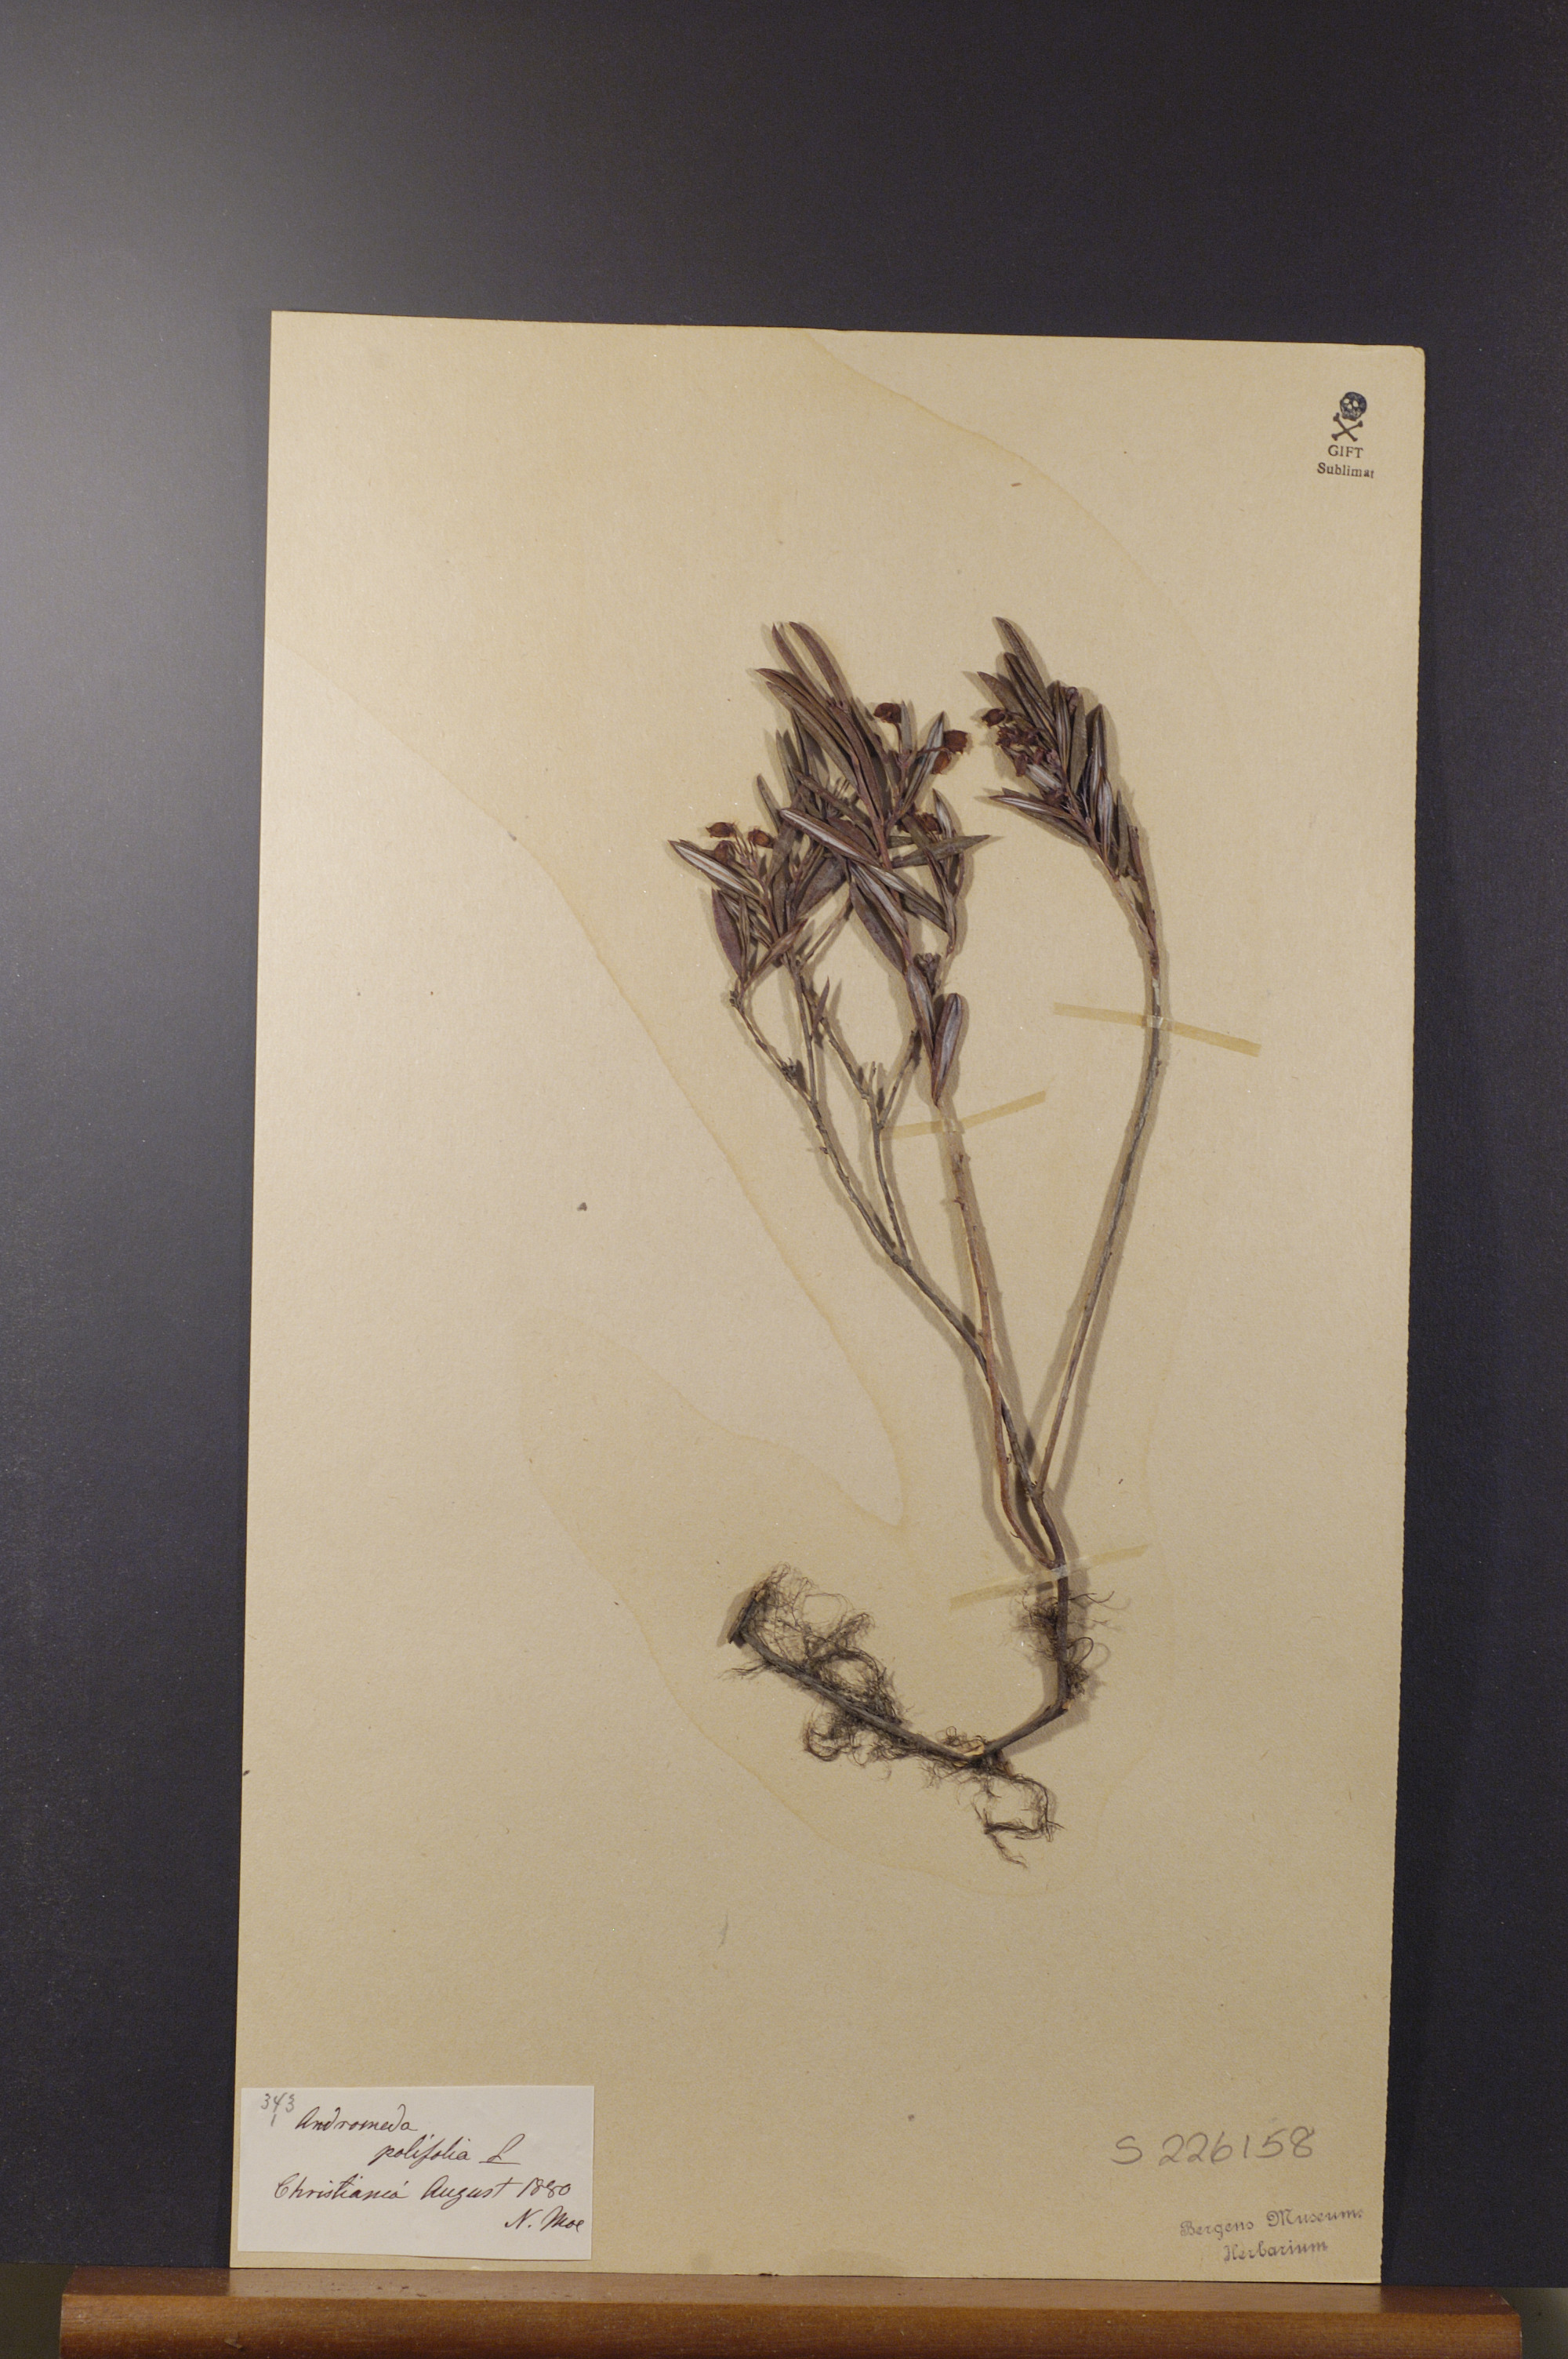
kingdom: Plantae
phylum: Tracheophyta
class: Magnoliopsida
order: Ericales
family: Ericaceae
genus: Andromeda
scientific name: Andromeda polifolia
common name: Bog-rosemary
